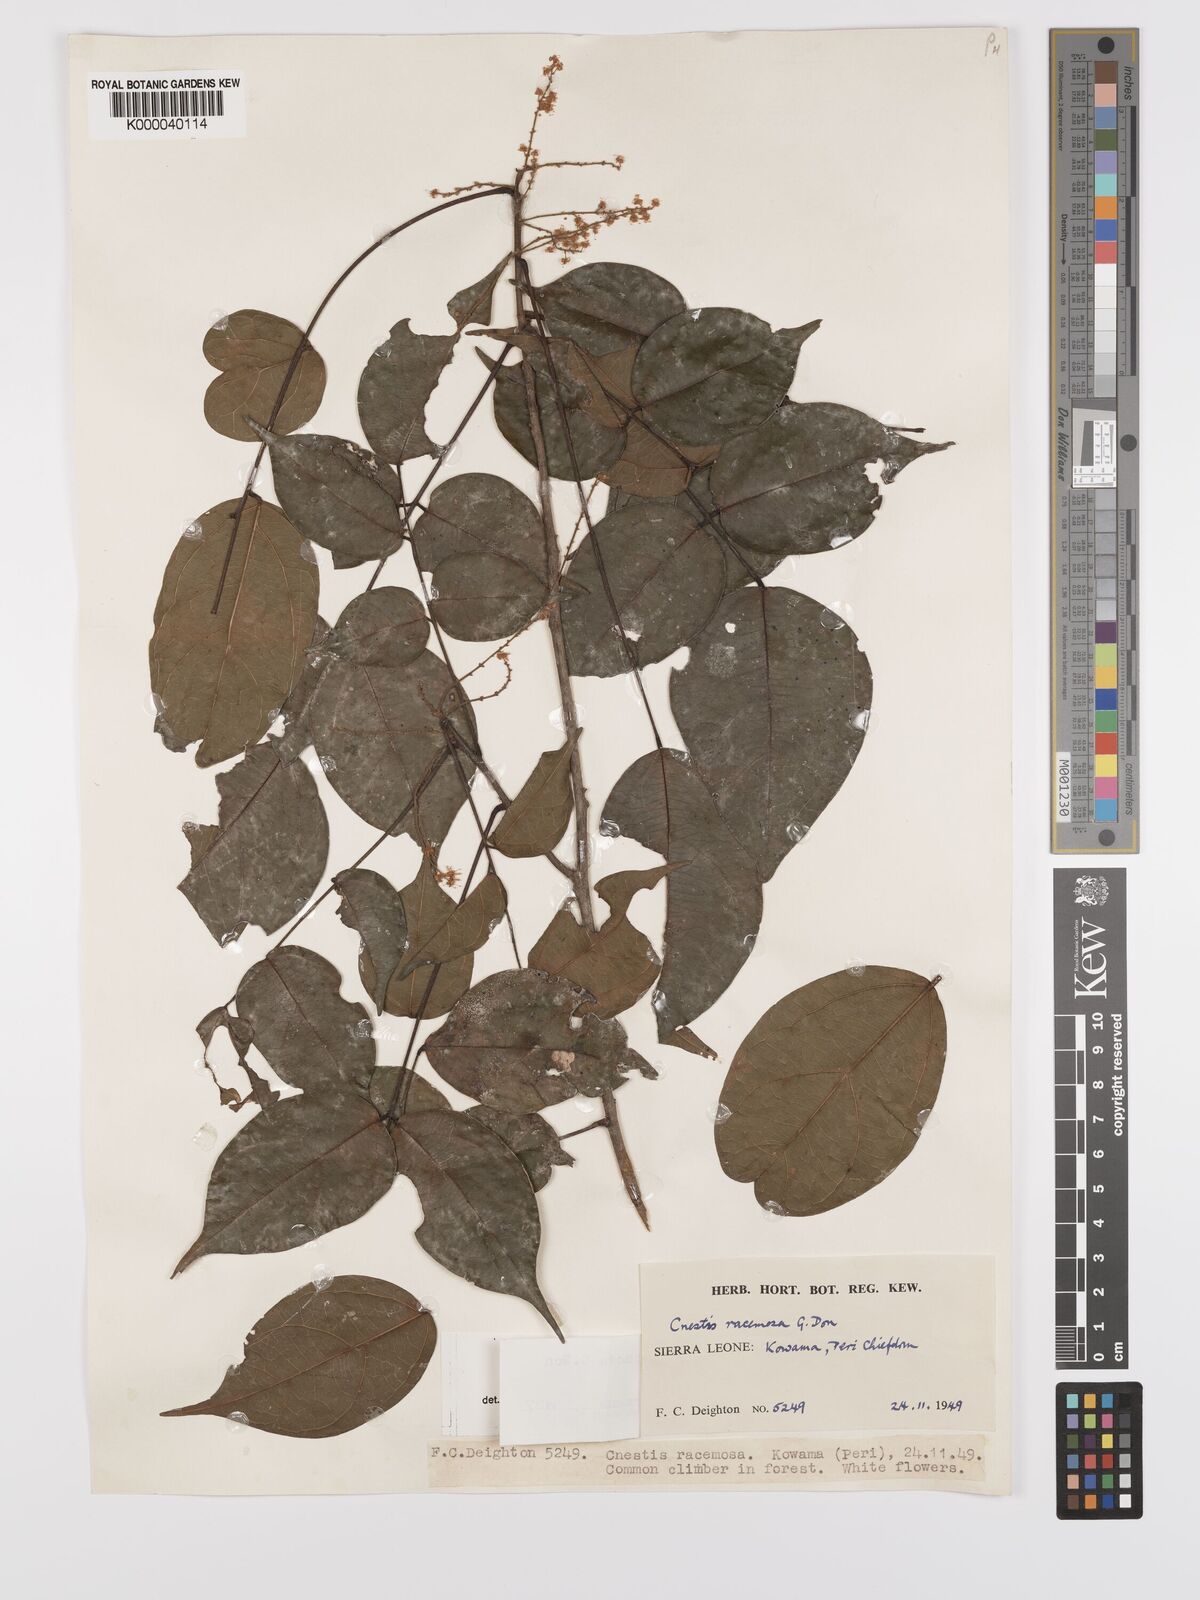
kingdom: Plantae
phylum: Tracheophyta
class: Magnoliopsida
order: Oxalidales
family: Connaraceae
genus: Cnestis
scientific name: Cnestis racemosa
